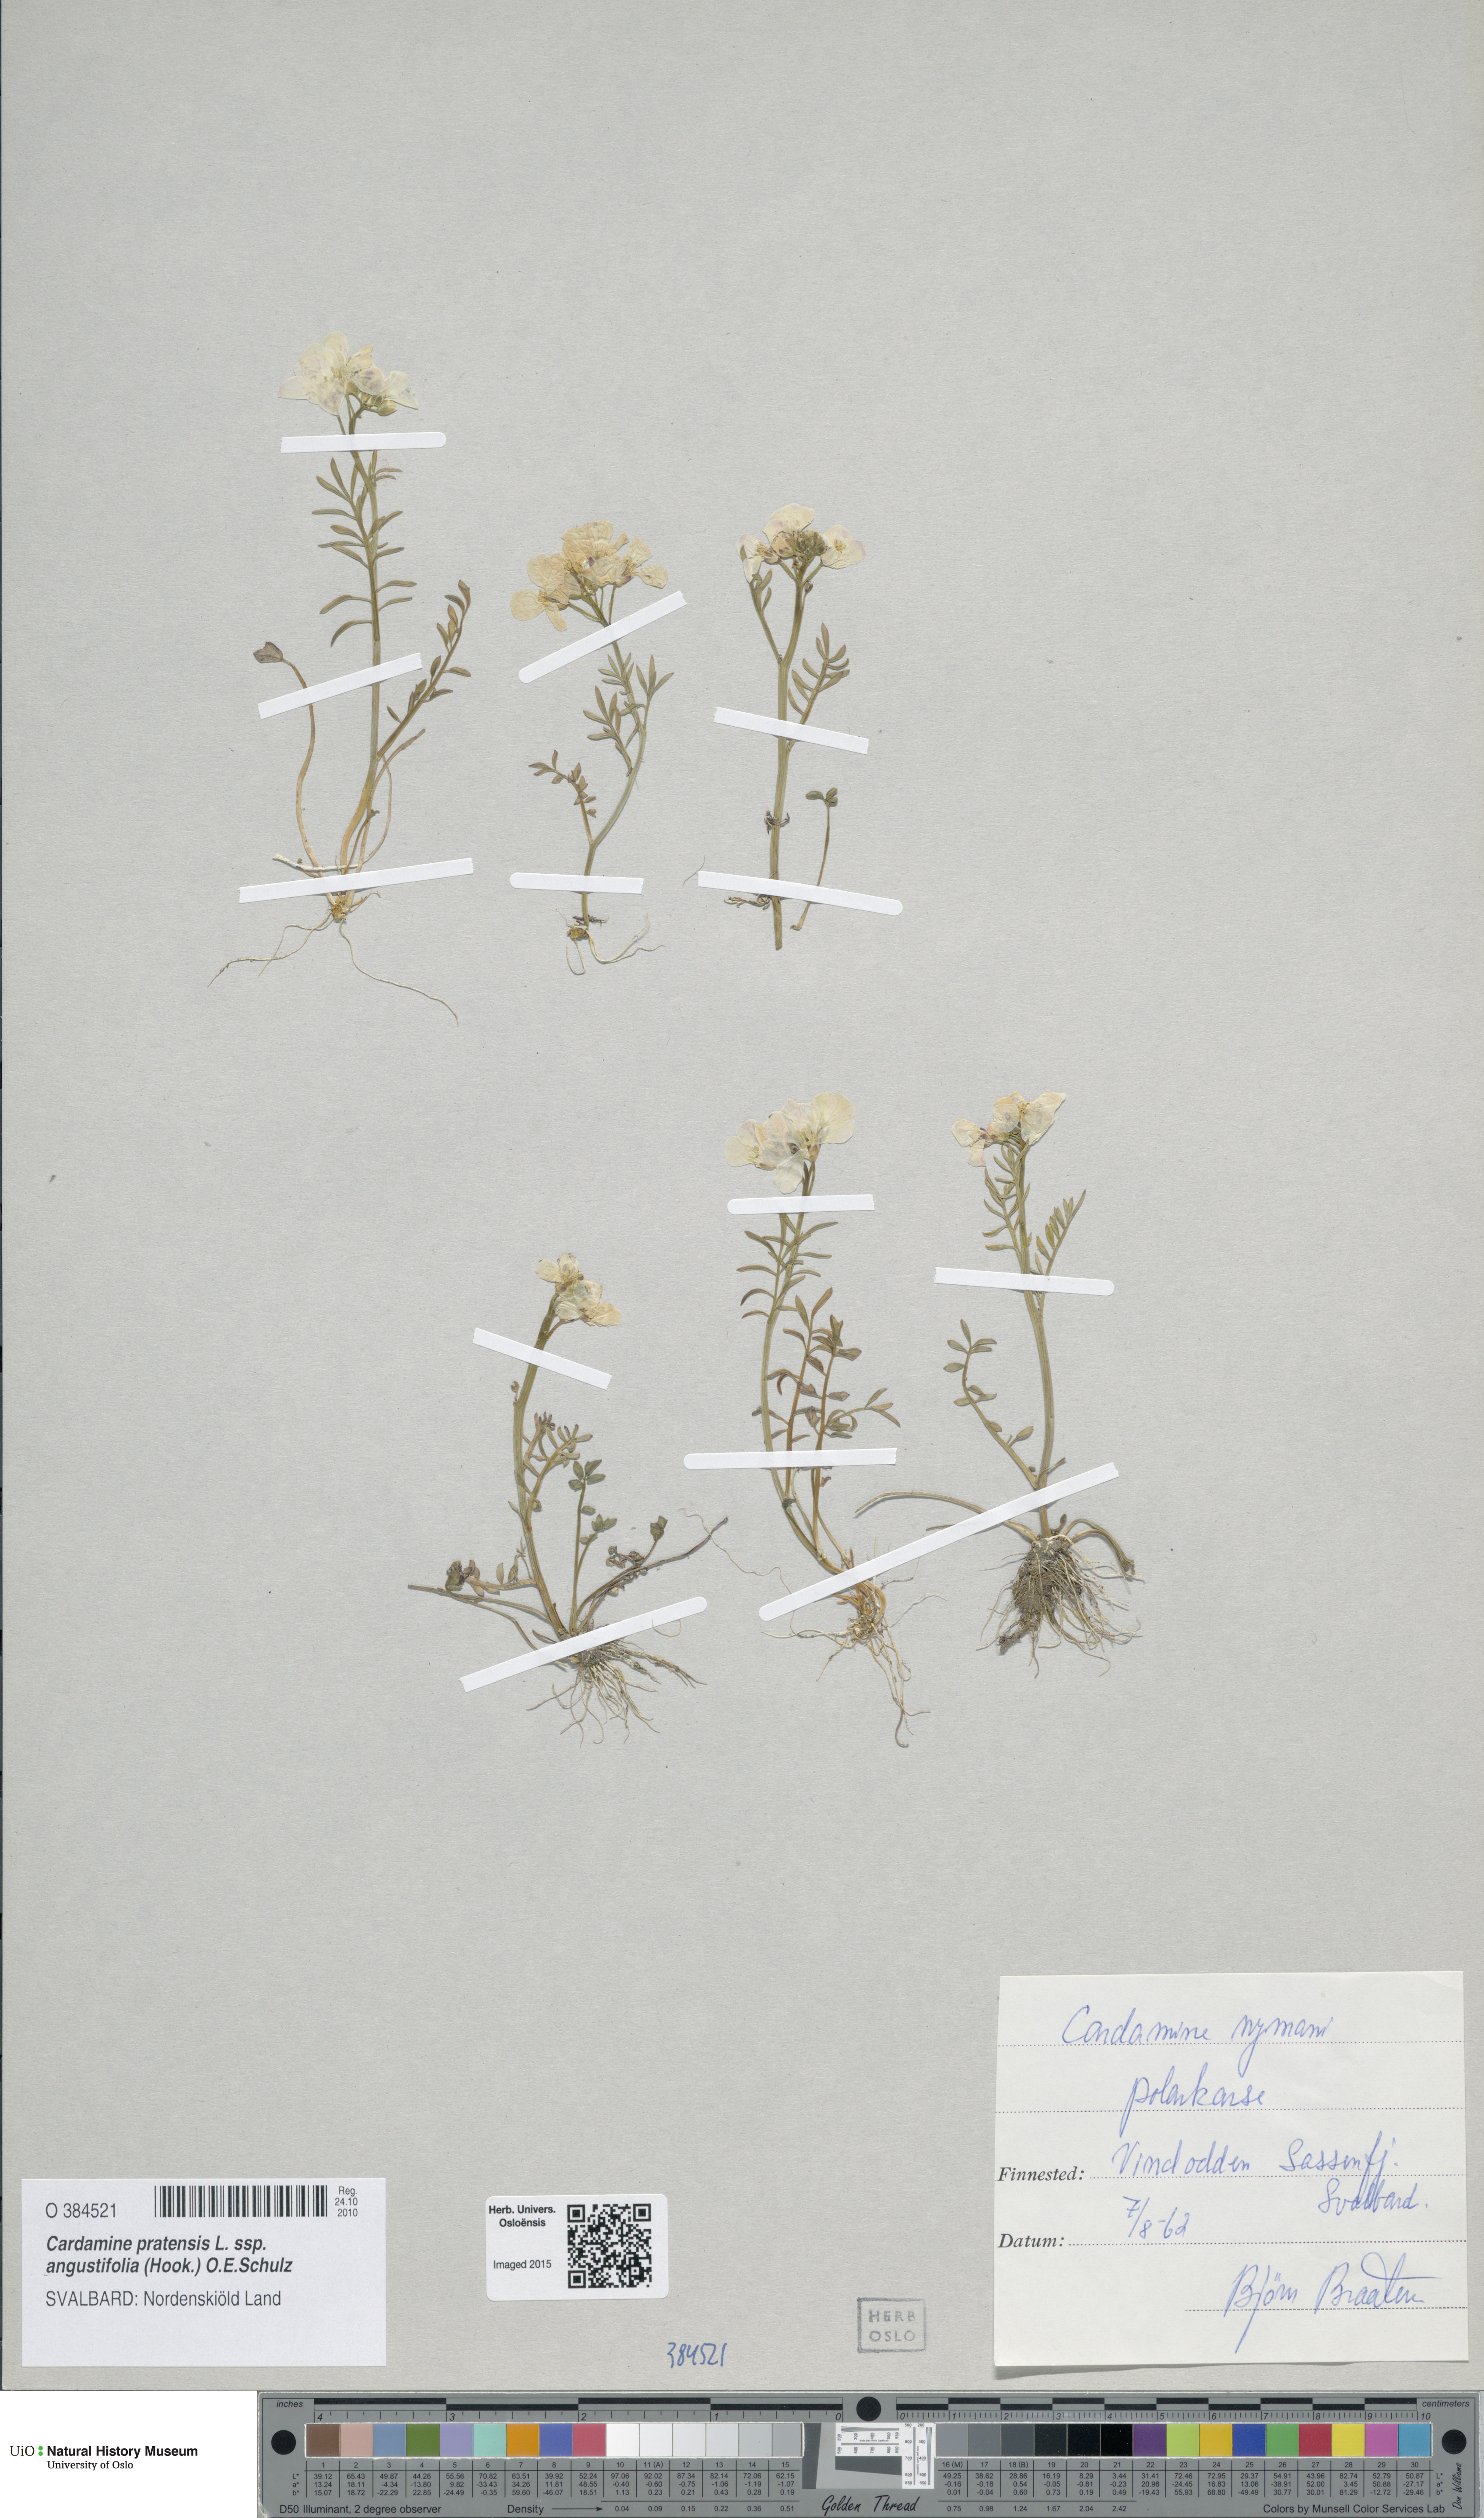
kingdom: Plantae
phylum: Tracheophyta
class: Magnoliopsida
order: Brassicales
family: Brassicaceae
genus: Cardamine
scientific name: Cardamine nymanii
